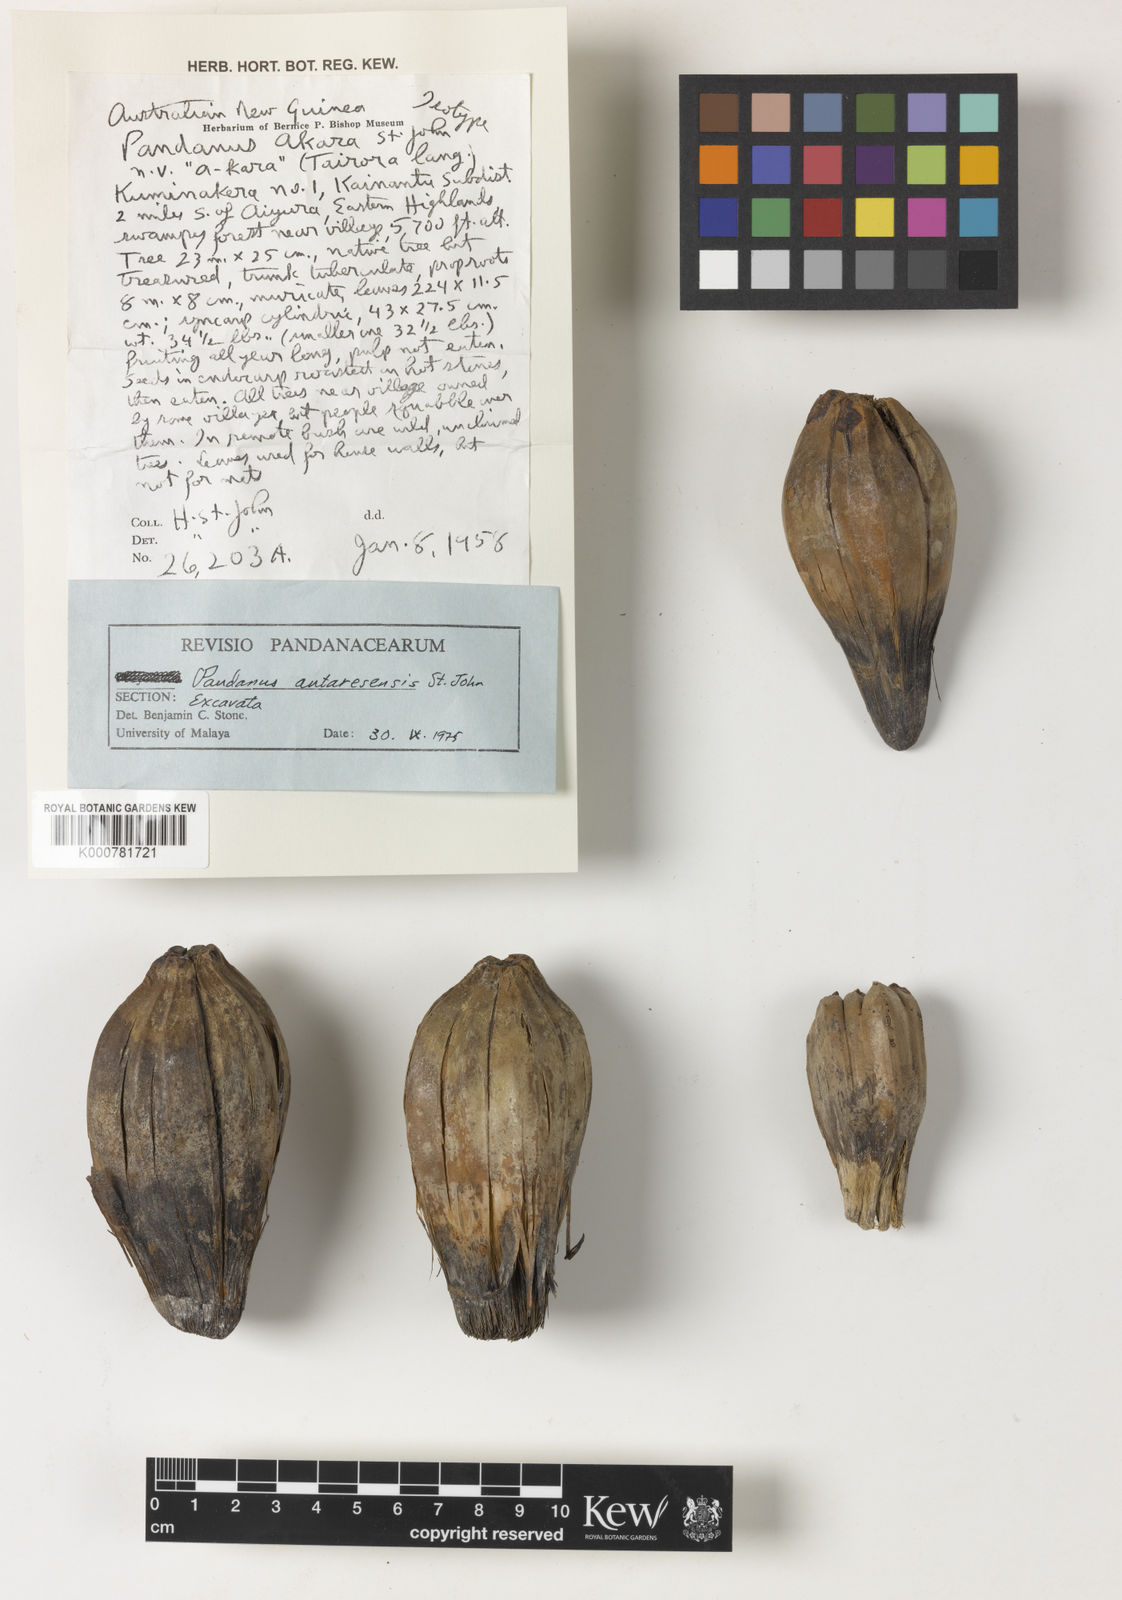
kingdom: Plantae
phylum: Tracheophyta
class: Liliopsida
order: Pandanales
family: Pandanaceae
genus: Pandanus
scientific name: Pandanus
